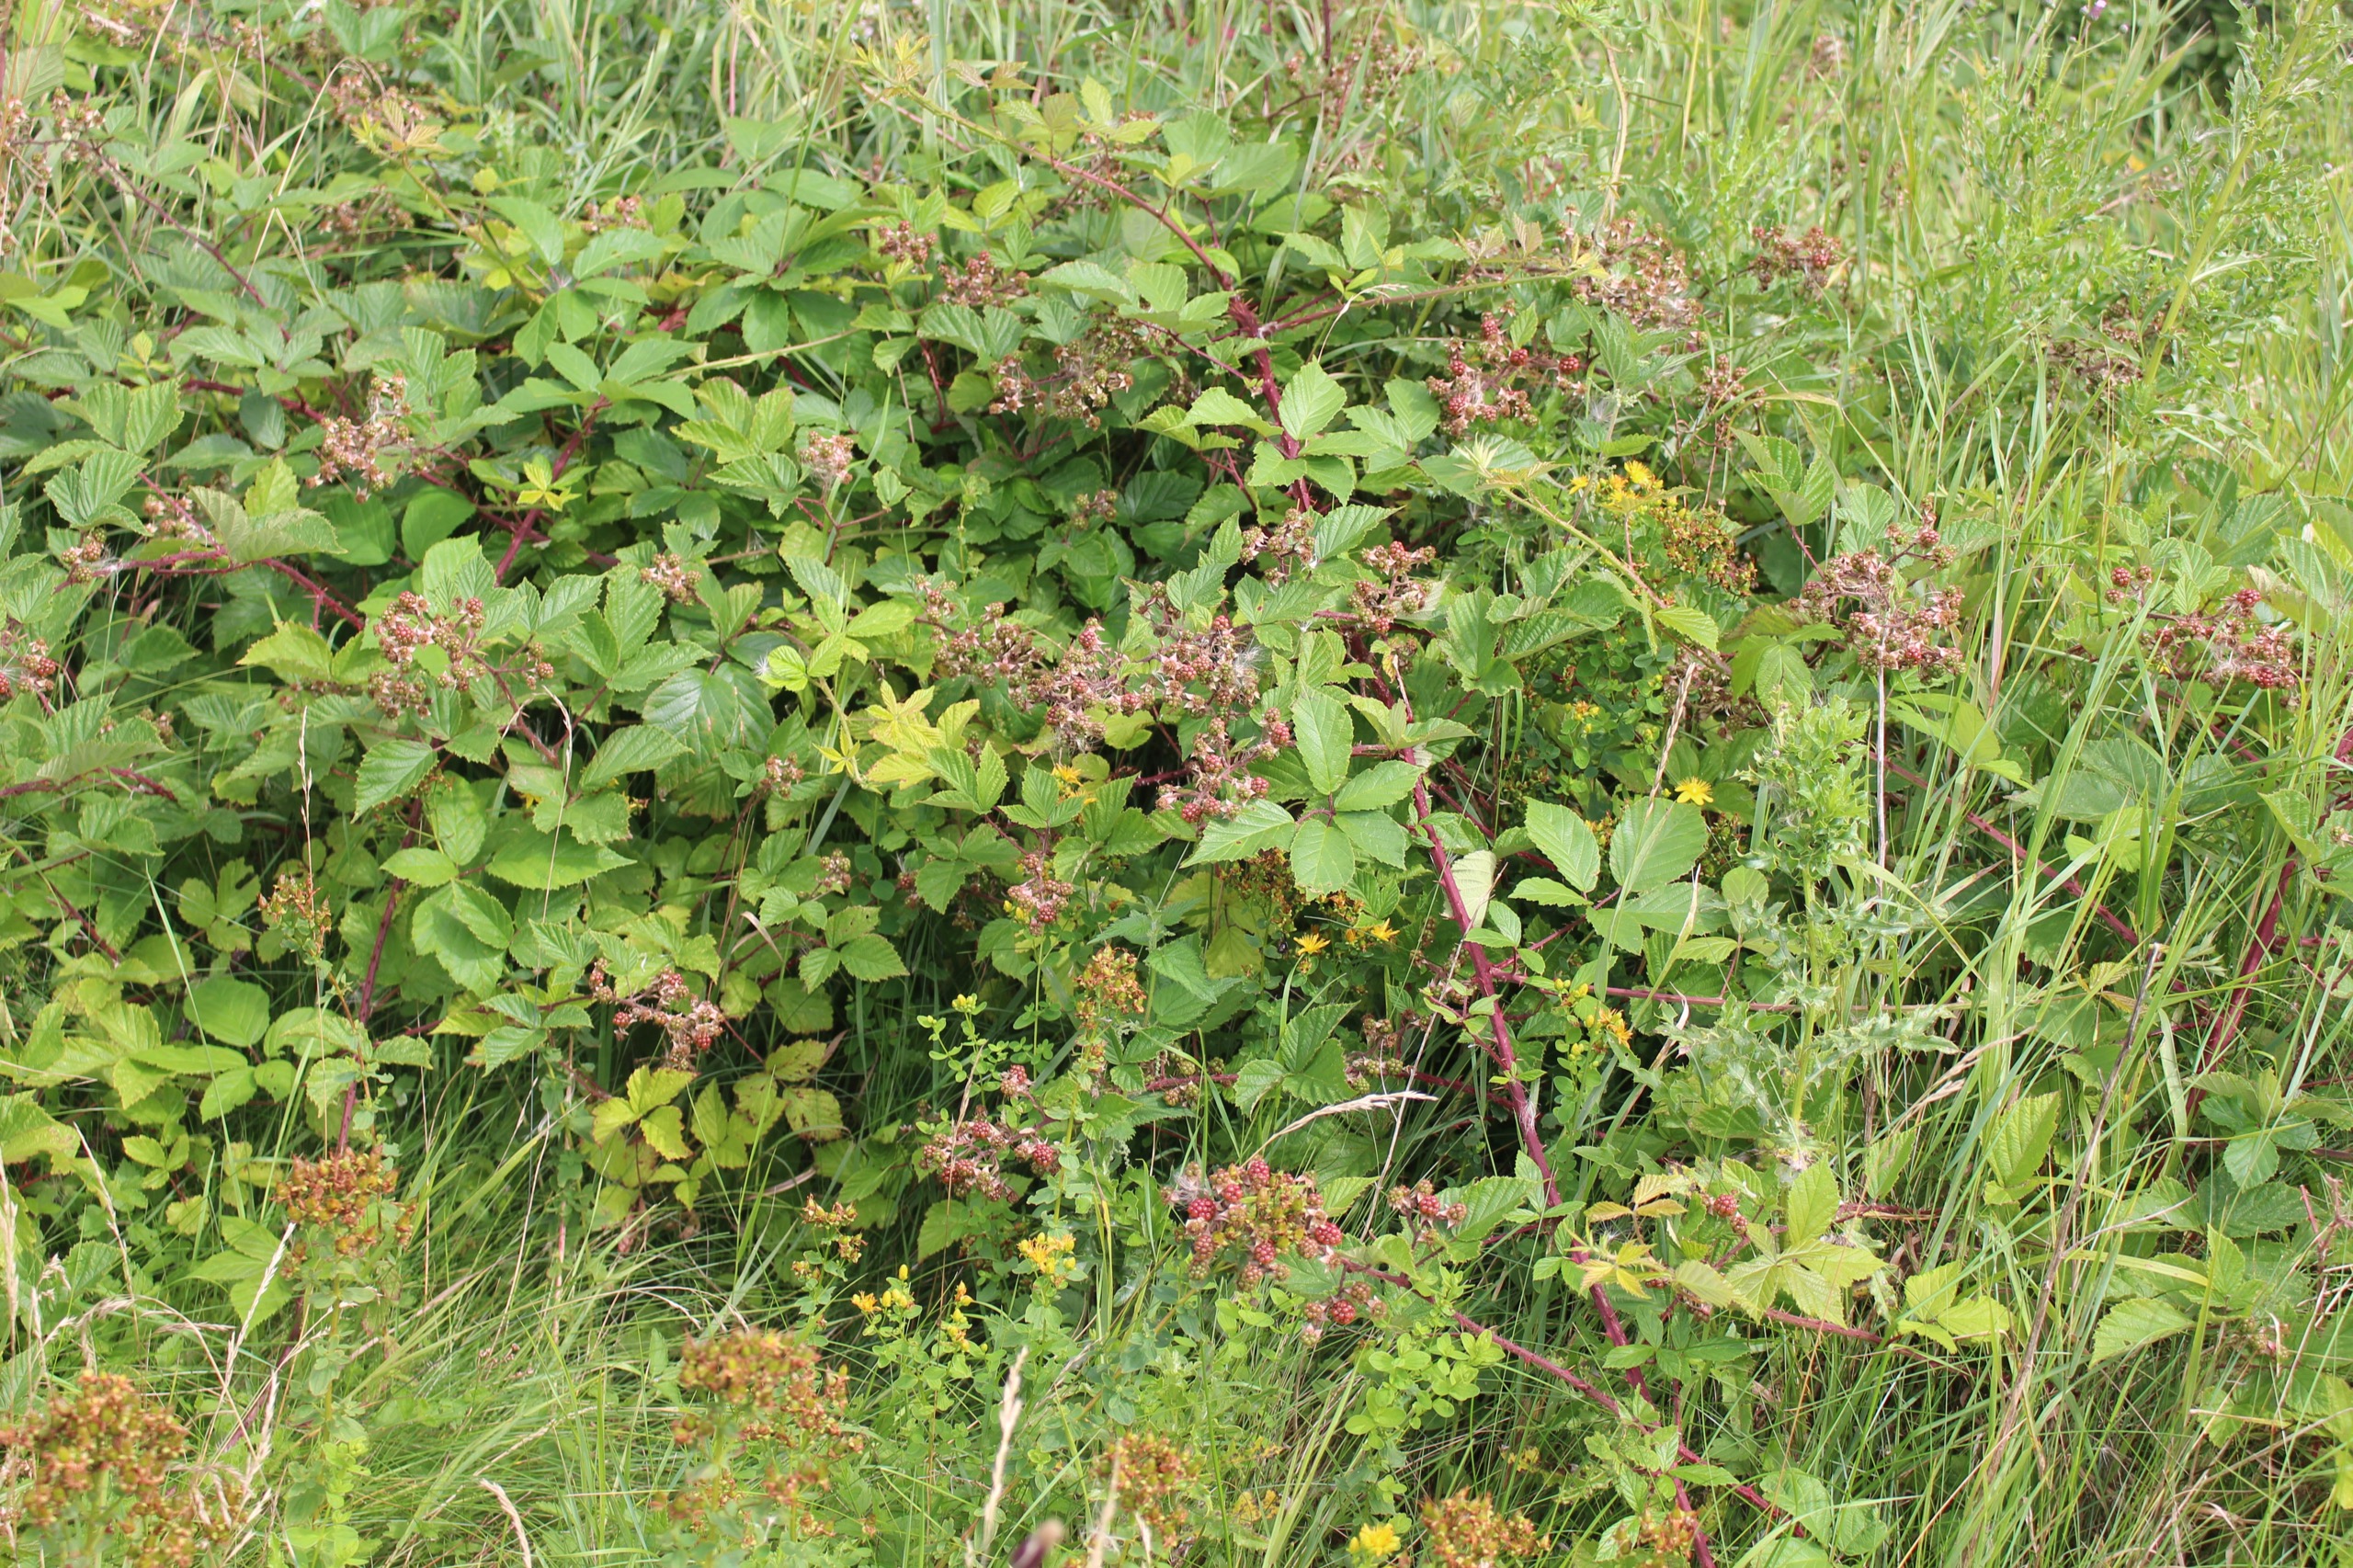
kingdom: Plantae
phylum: Tracheophyta
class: Magnoliopsida
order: Rosales
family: Rosaceae
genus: Rubus
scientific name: Rubus radula
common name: Rasperu brombær
